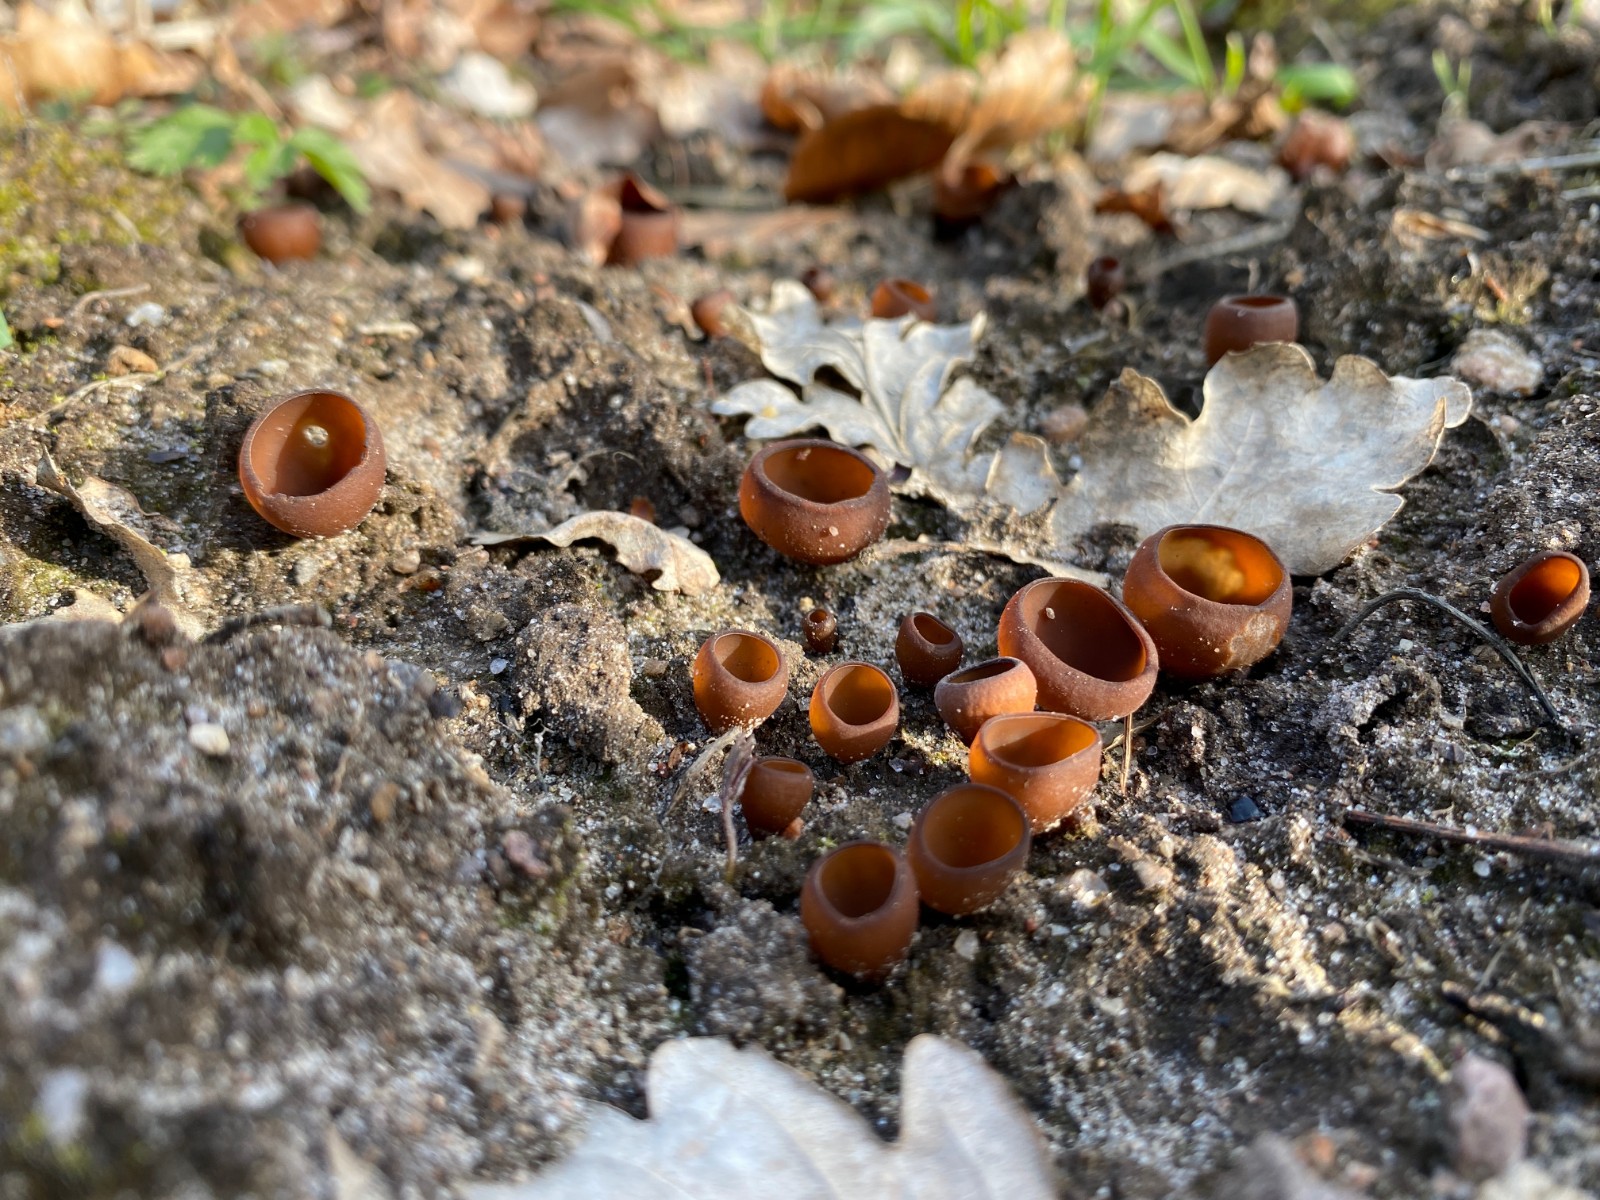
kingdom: Fungi
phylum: Ascomycota
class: Leotiomycetes
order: Helotiales
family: Sclerotiniaceae
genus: Dumontinia
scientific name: Dumontinia tuberosa
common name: anemone-knoldskive
